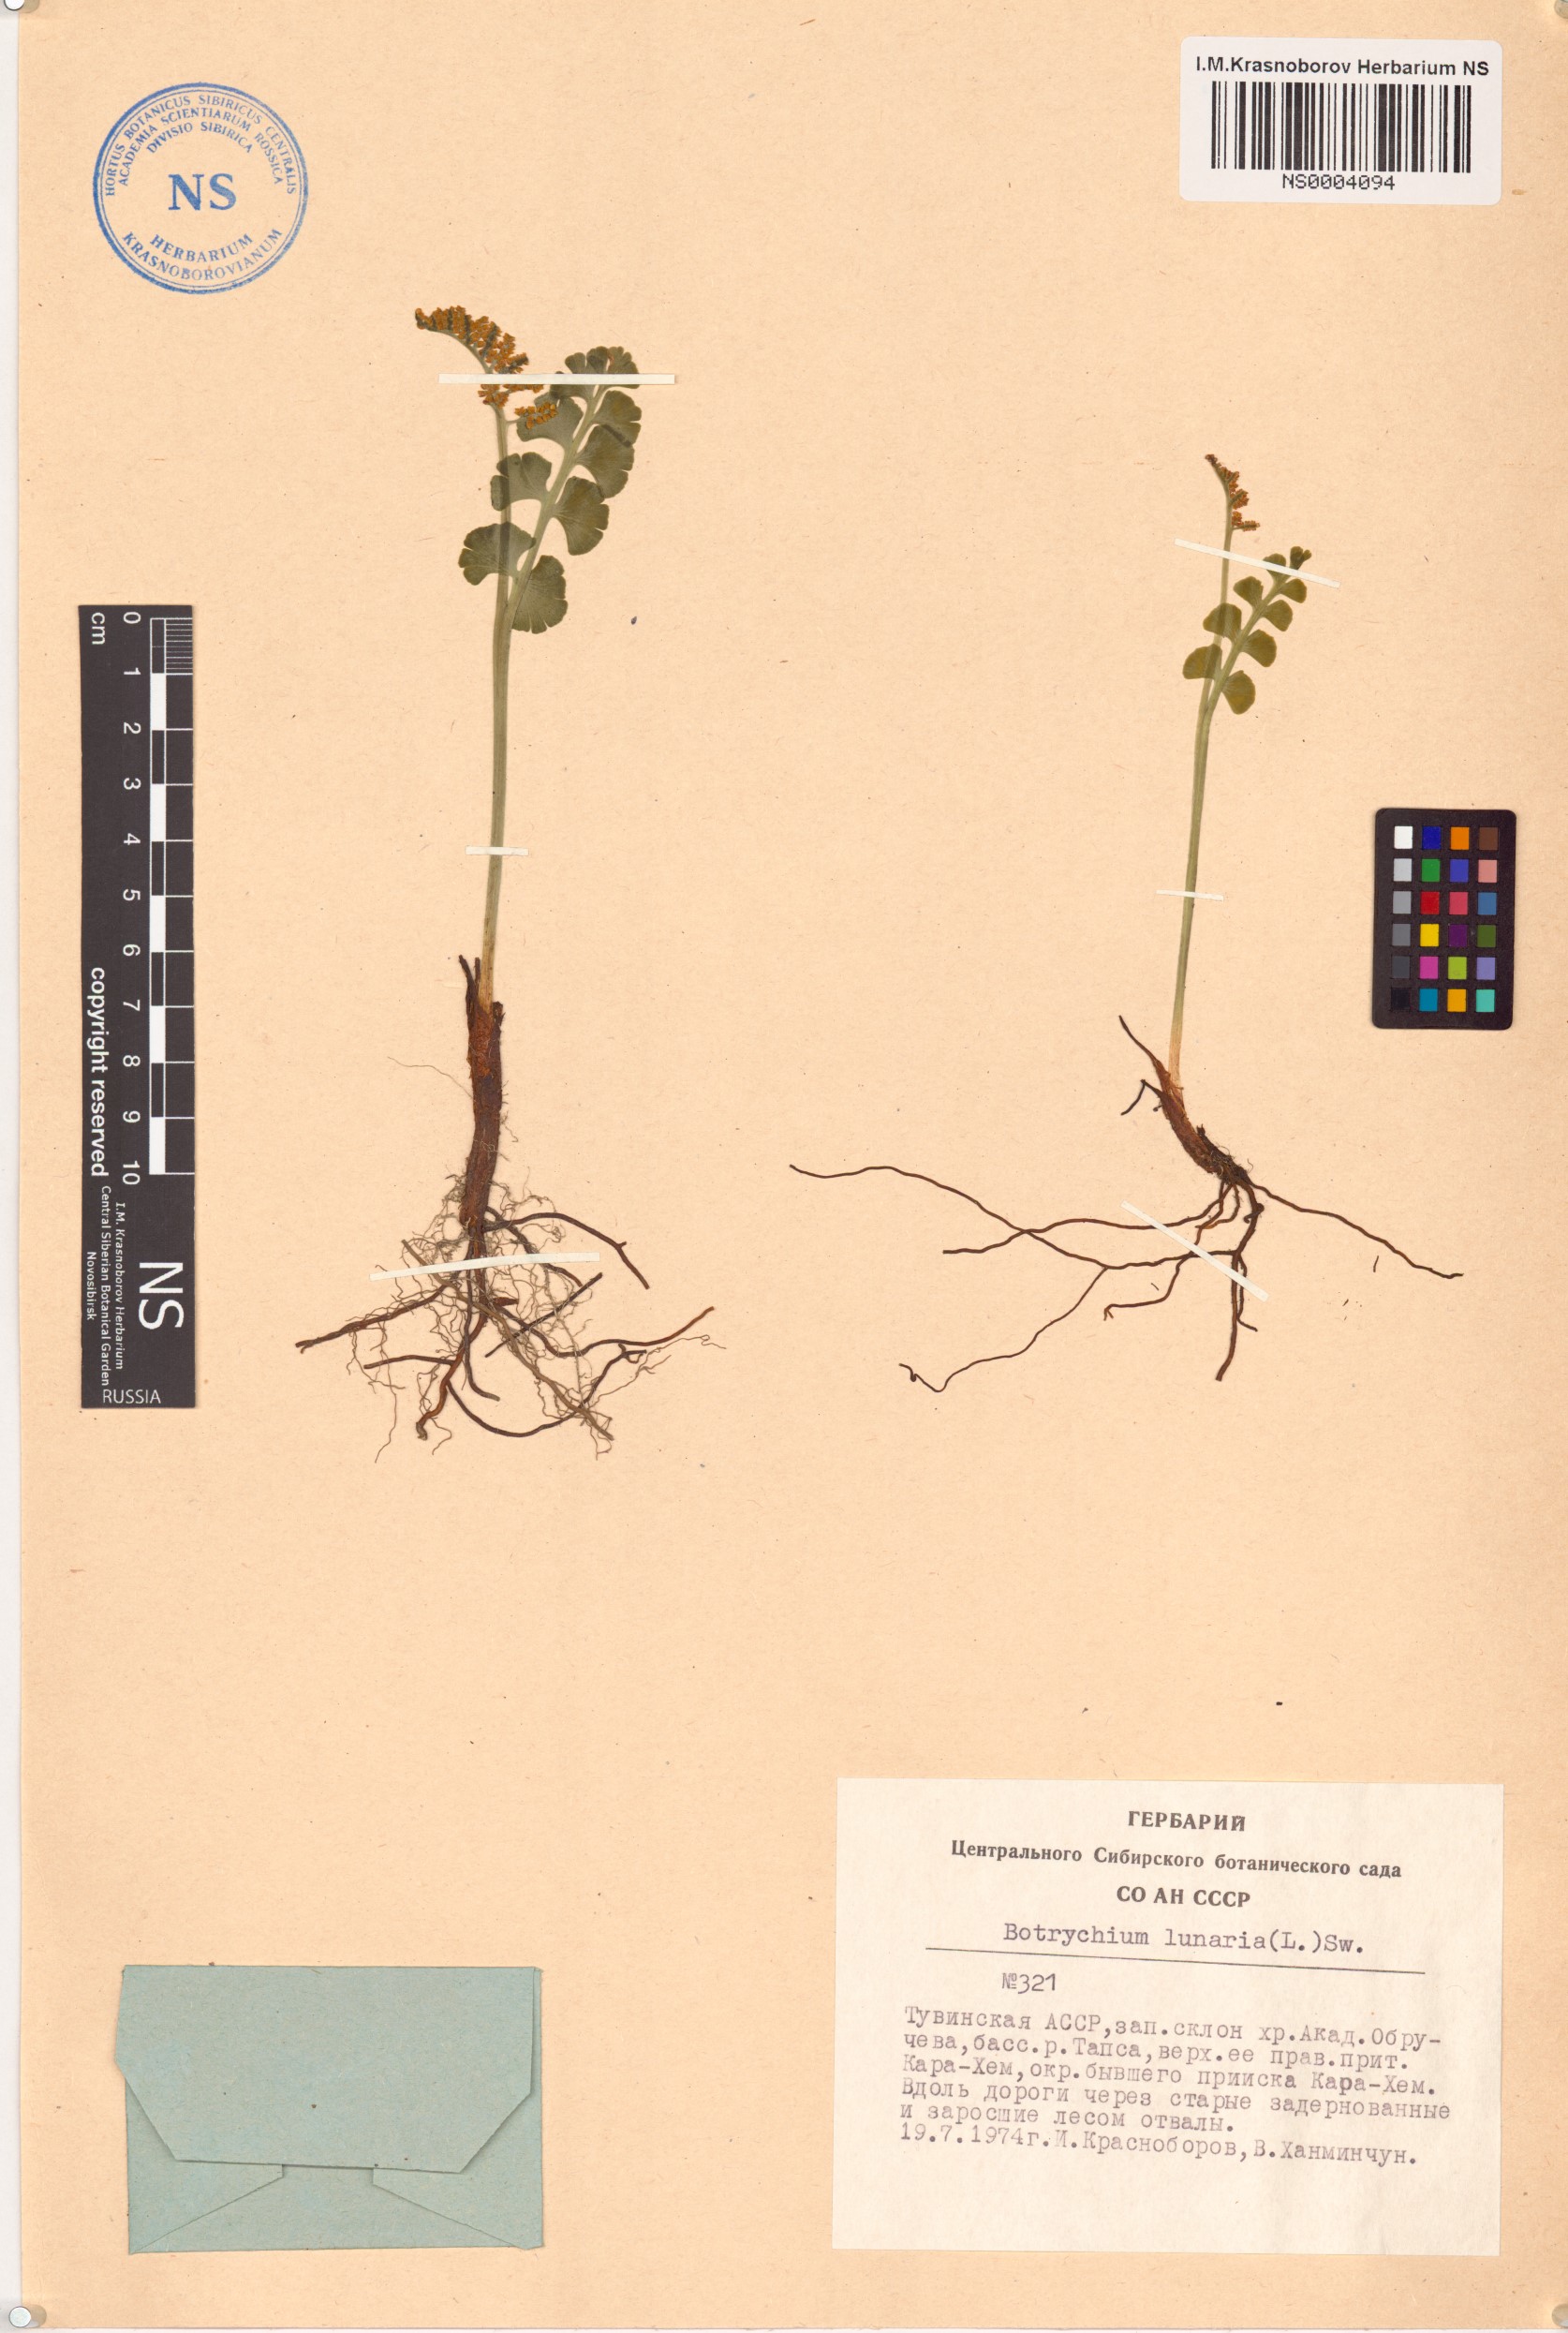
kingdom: Plantae
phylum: Tracheophyta
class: Polypodiopsida
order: Ophioglossales
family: Ophioglossaceae
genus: Botrychium
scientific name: Botrychium lunaria
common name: Moonwort
